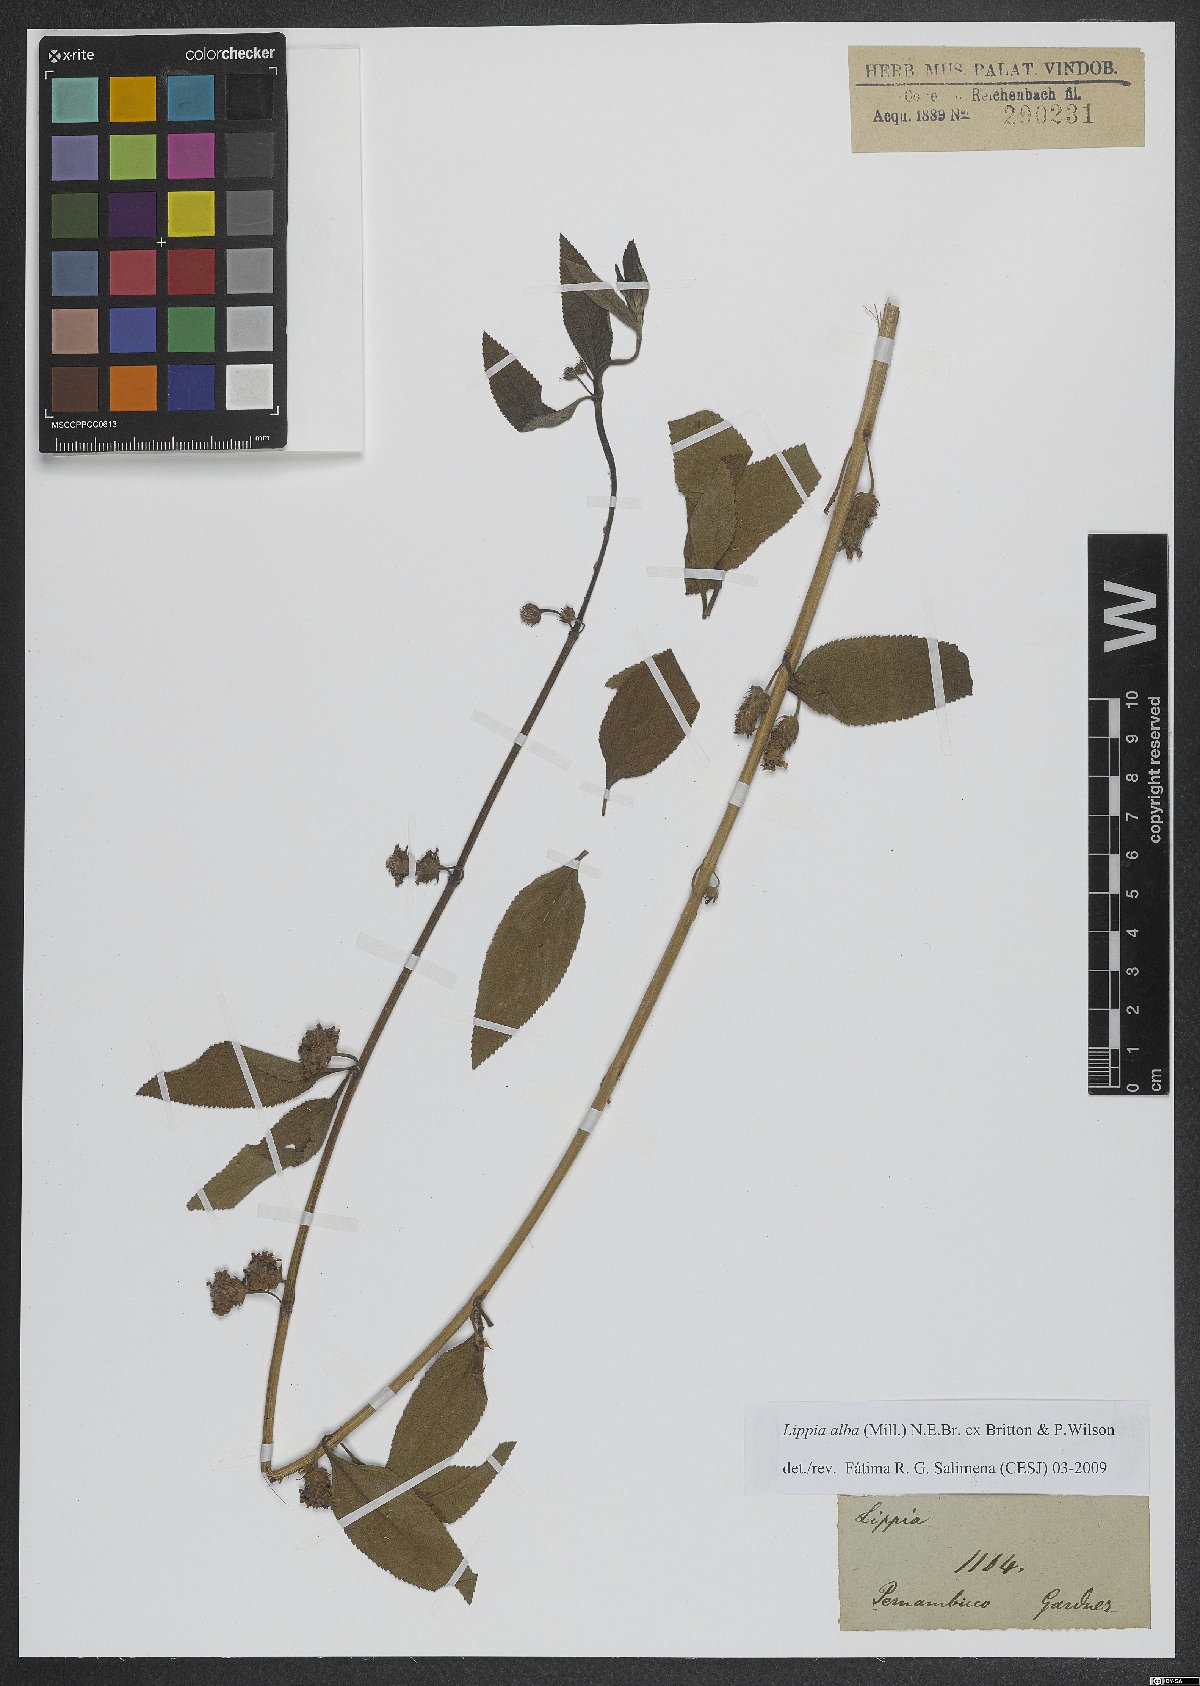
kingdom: Plantae
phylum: Tracheophyta
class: Magnoliopsida
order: Lamiales
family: Verbenaceae
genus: Lippia
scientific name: Lippia alba
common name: Bushy matgrass
